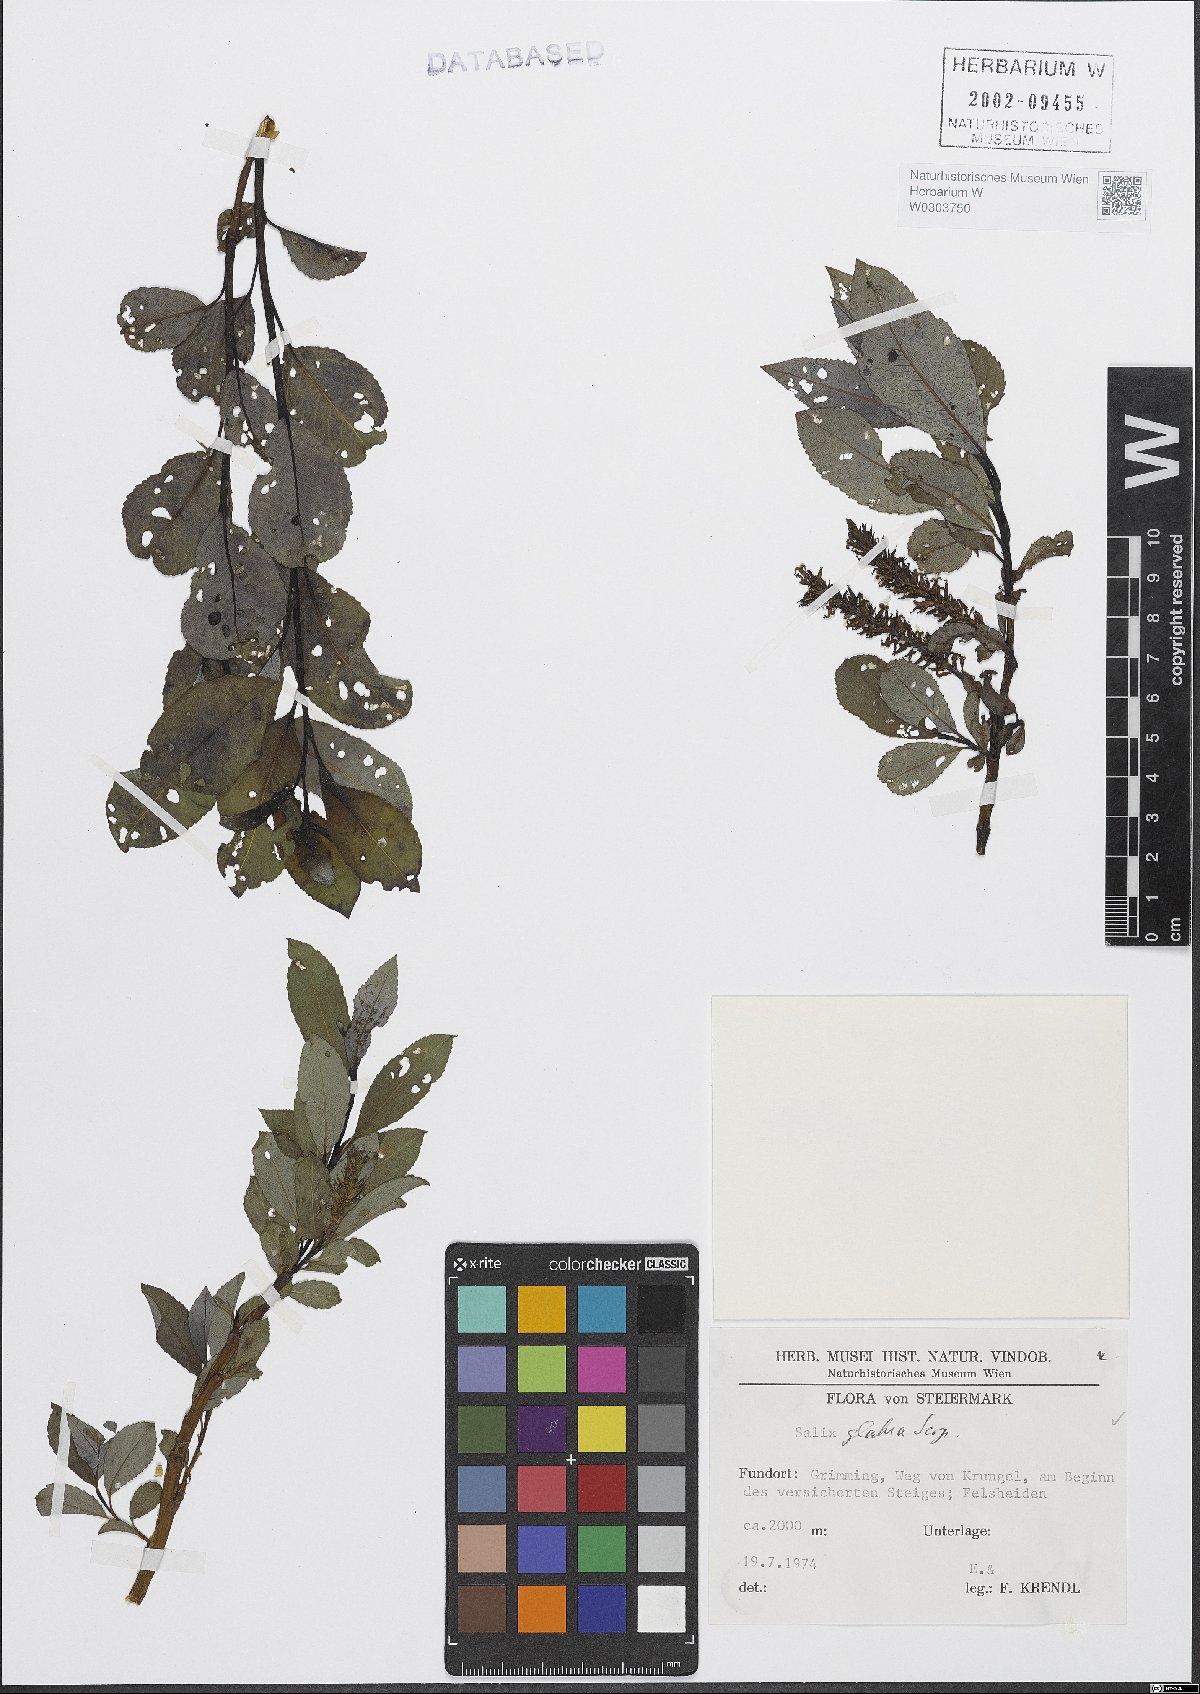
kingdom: Plantae
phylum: Tracheophyta
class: Magnoliopsida
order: Malpighiales
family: Salicaceae
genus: Salix
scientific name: Salix glabra
